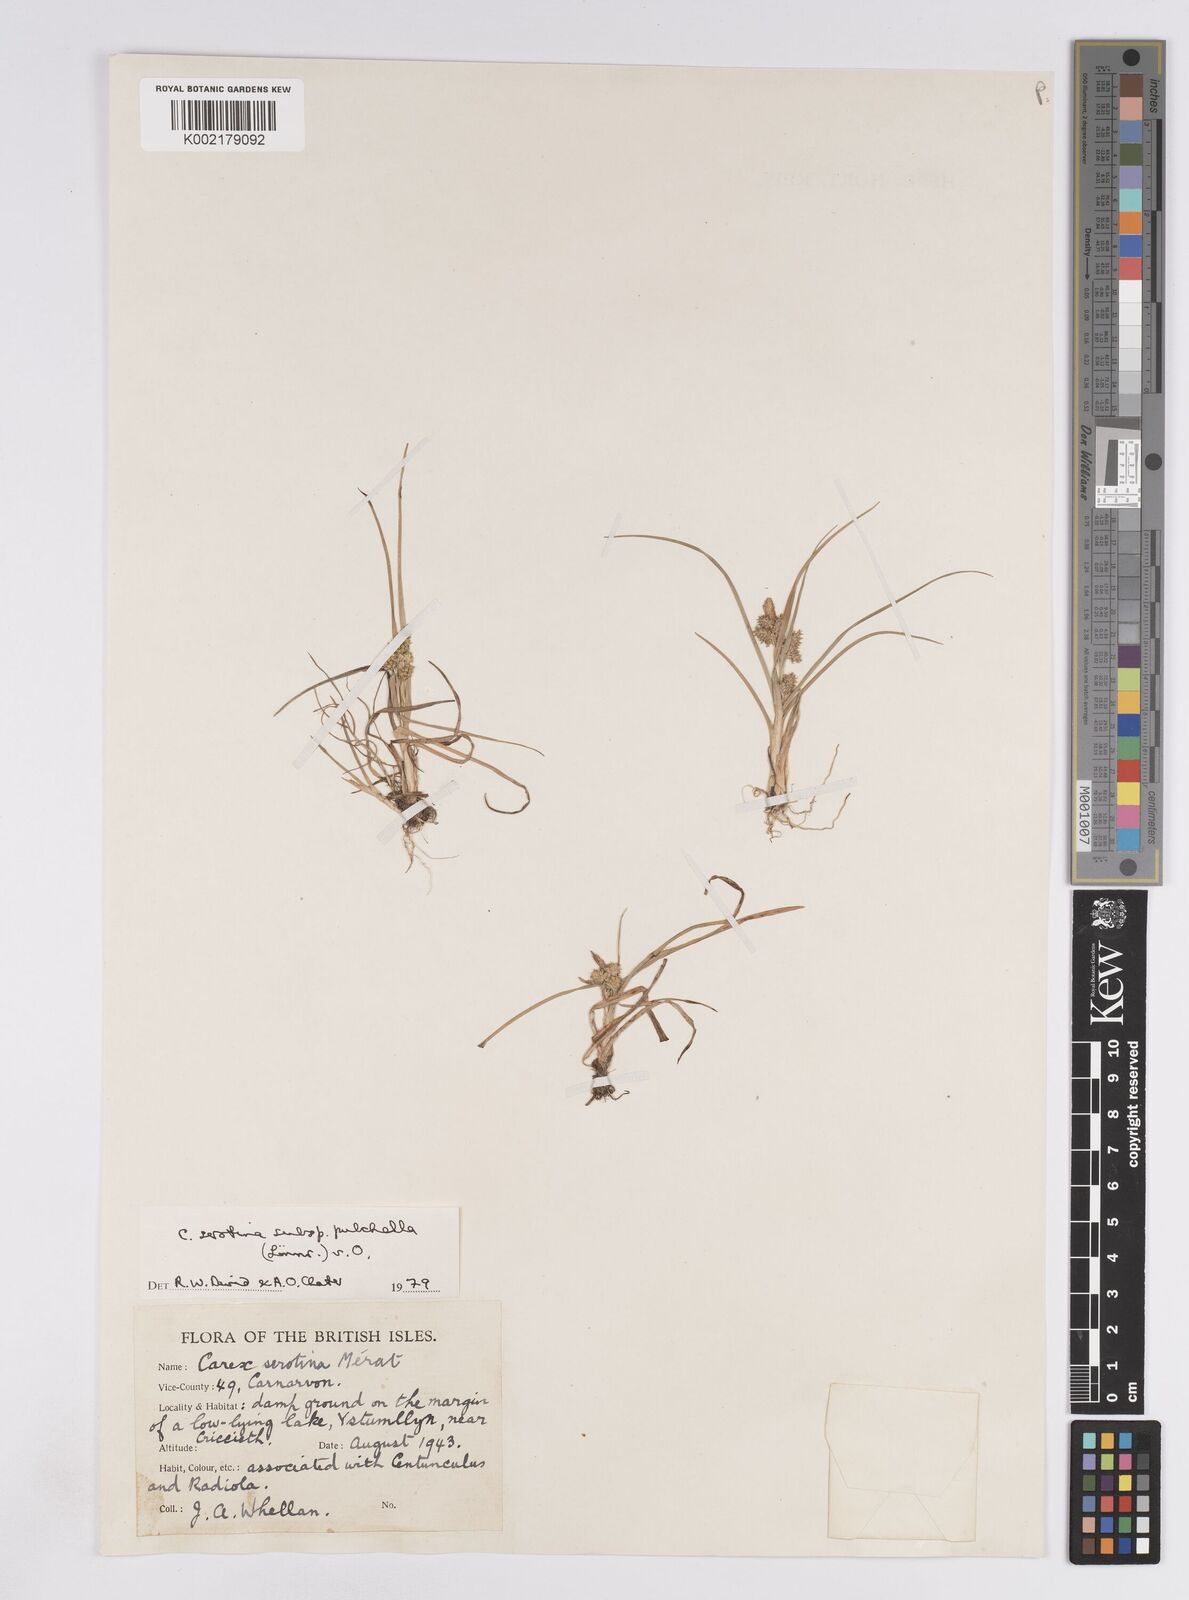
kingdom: Plantae
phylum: Tracheophyta
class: Liliopsida
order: Poales
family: Cyperaceae
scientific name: Cyperaceae
